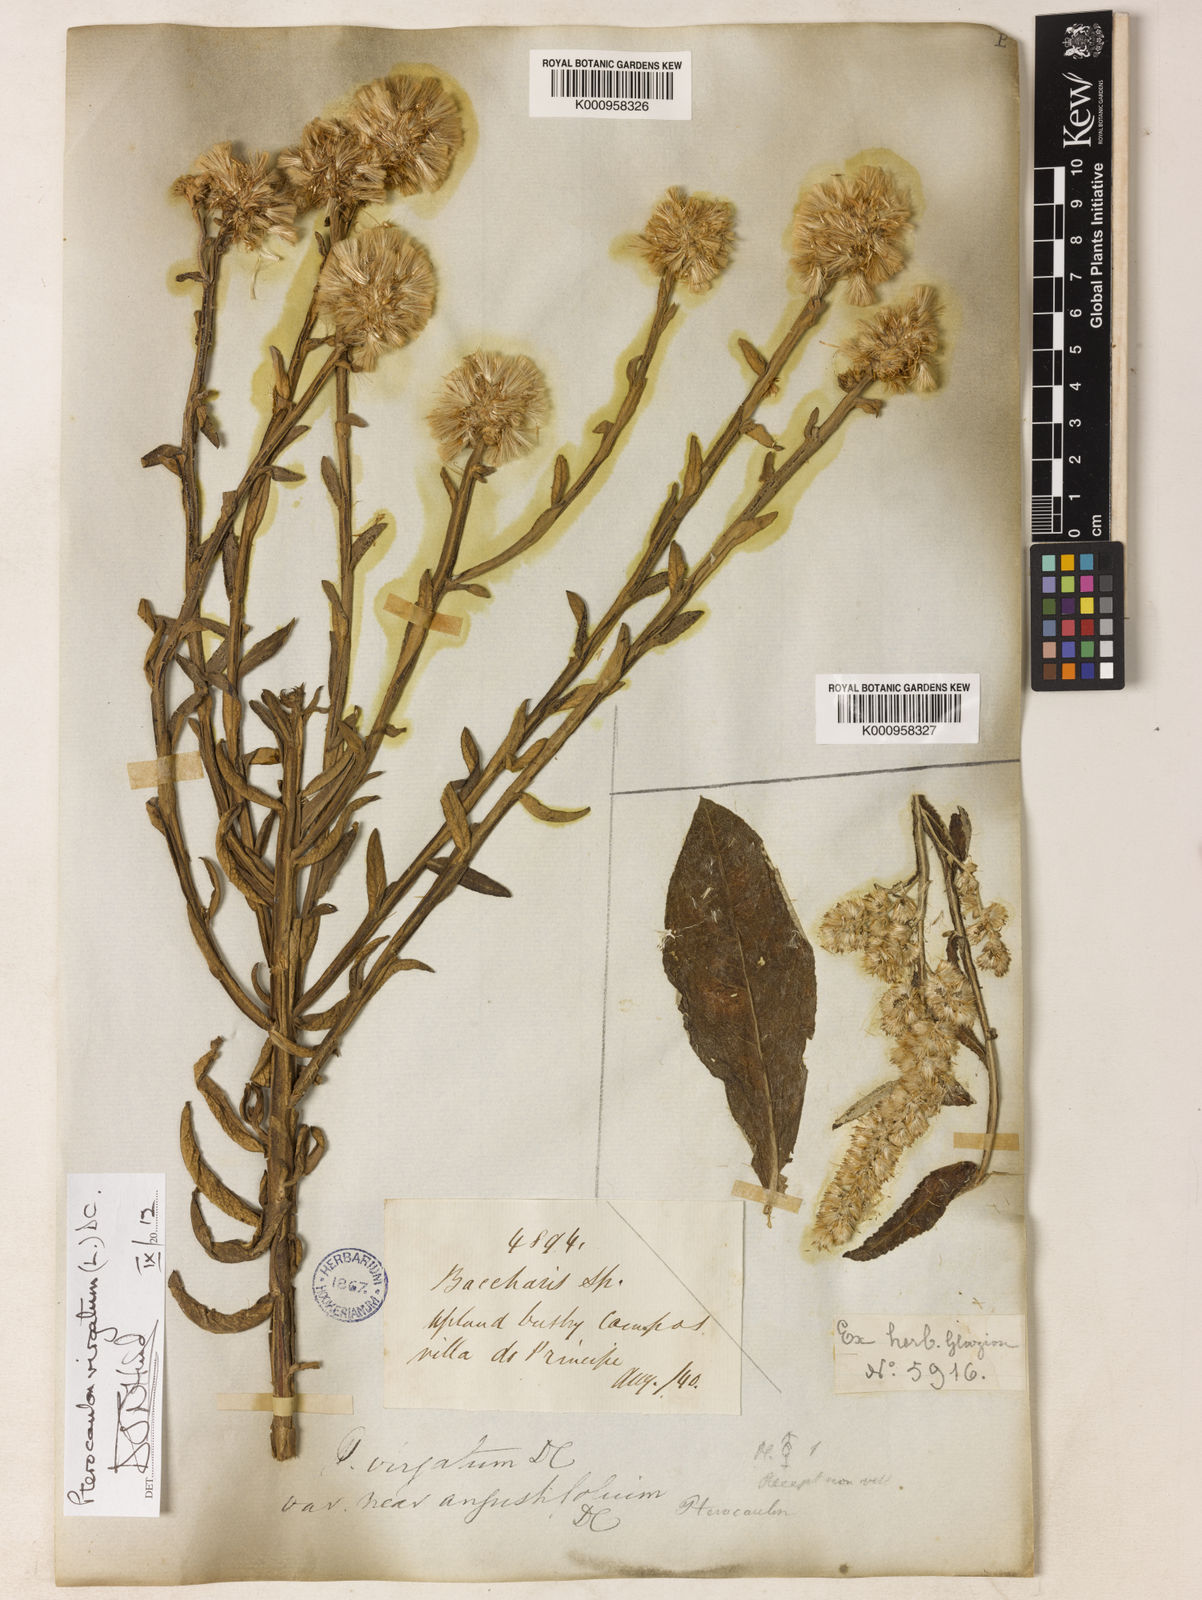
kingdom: Plantae
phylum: Tracheophyta
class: Magnoliopsida
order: Asterales
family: Asteraceae
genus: Pterocaulon
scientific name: Pterocaulon virgatum
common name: Wand blackroot
